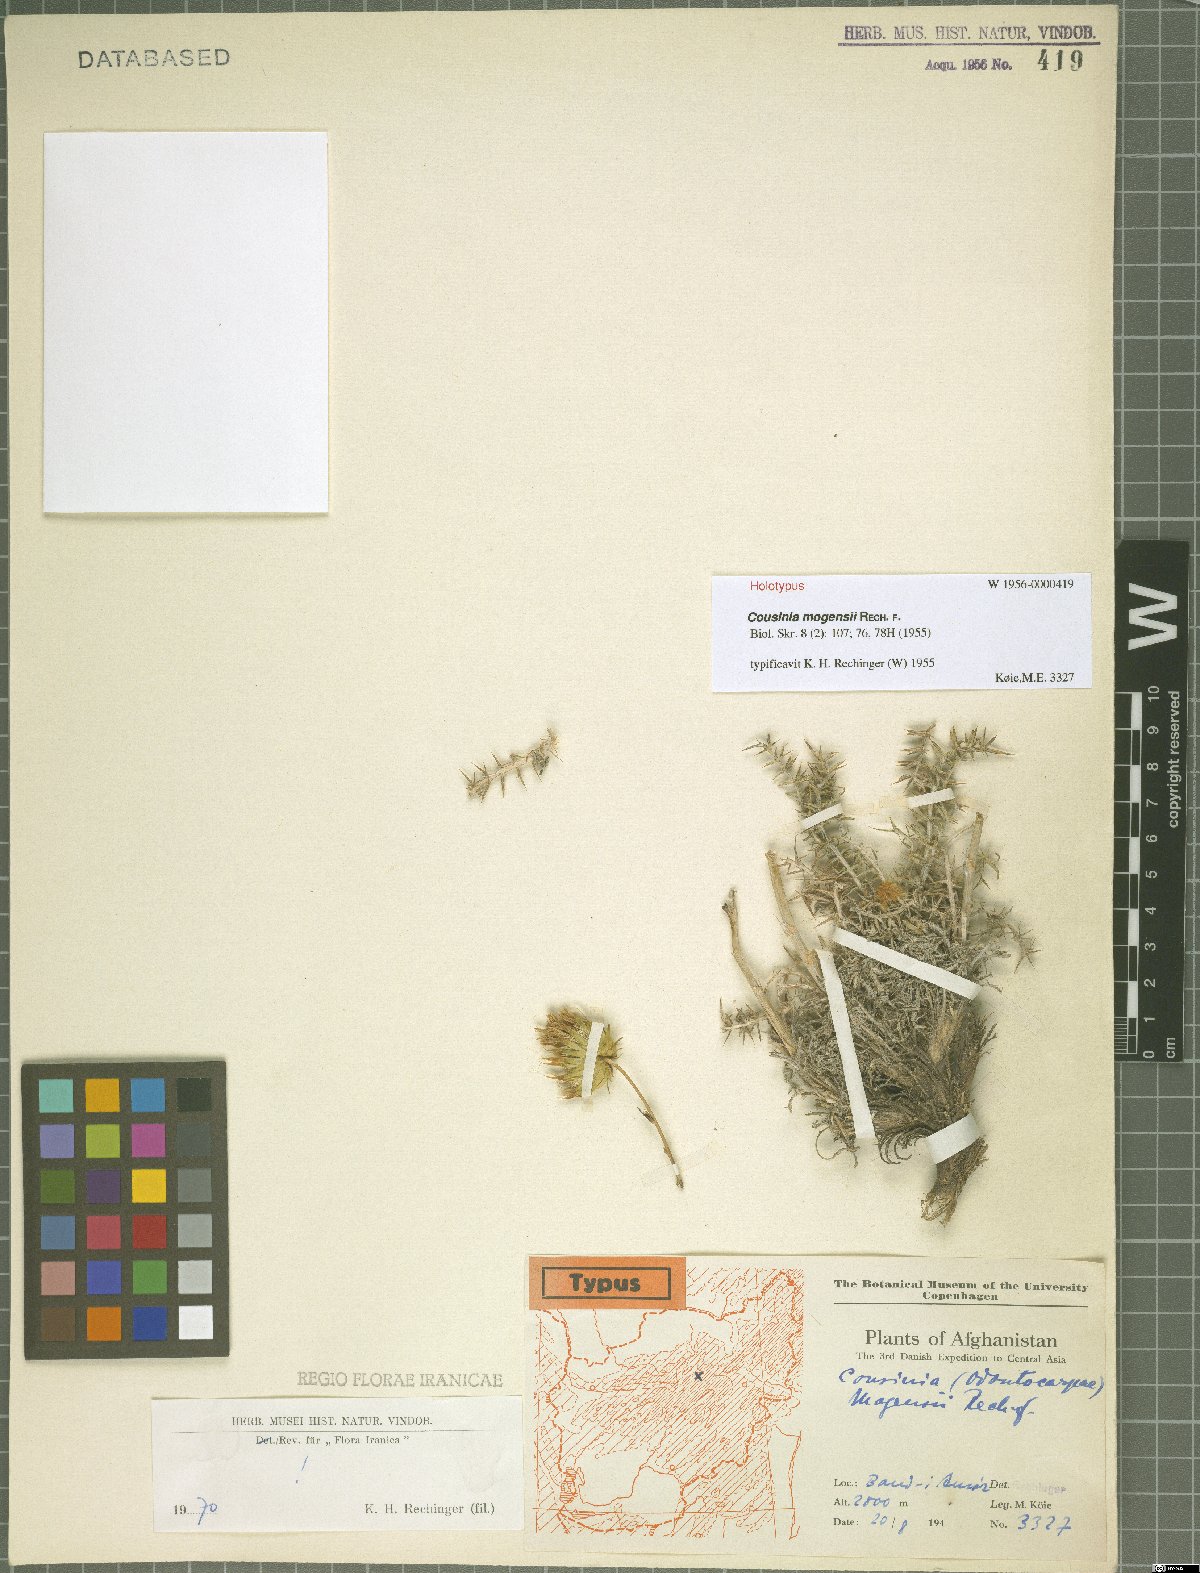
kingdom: Plantae
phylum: Tracheophyta
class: Magnoliopsida
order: Asterales
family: Asteraceae
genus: Cousinia
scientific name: Cousinia mogensii
